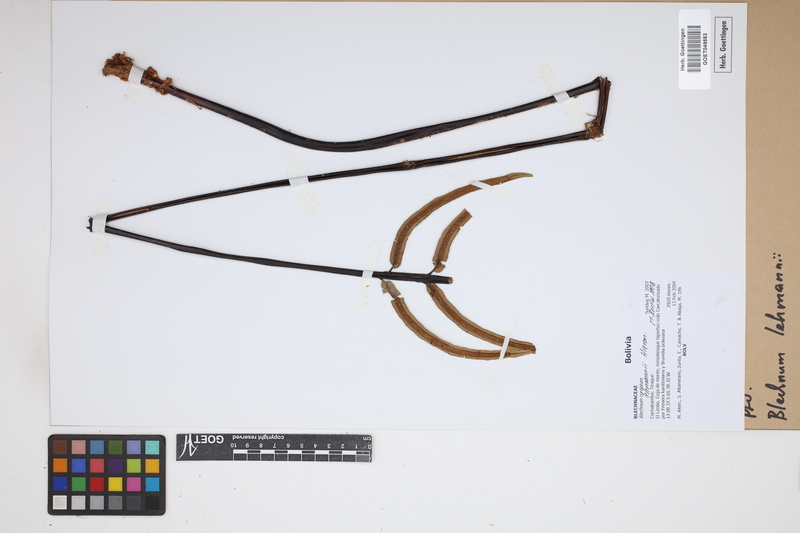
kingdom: Plantae
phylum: Tracheophyta
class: Polypodiopsida
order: Polypodiales
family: Blechnaceae
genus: Austroblechnum
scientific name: Austroblechnum lehmannii
